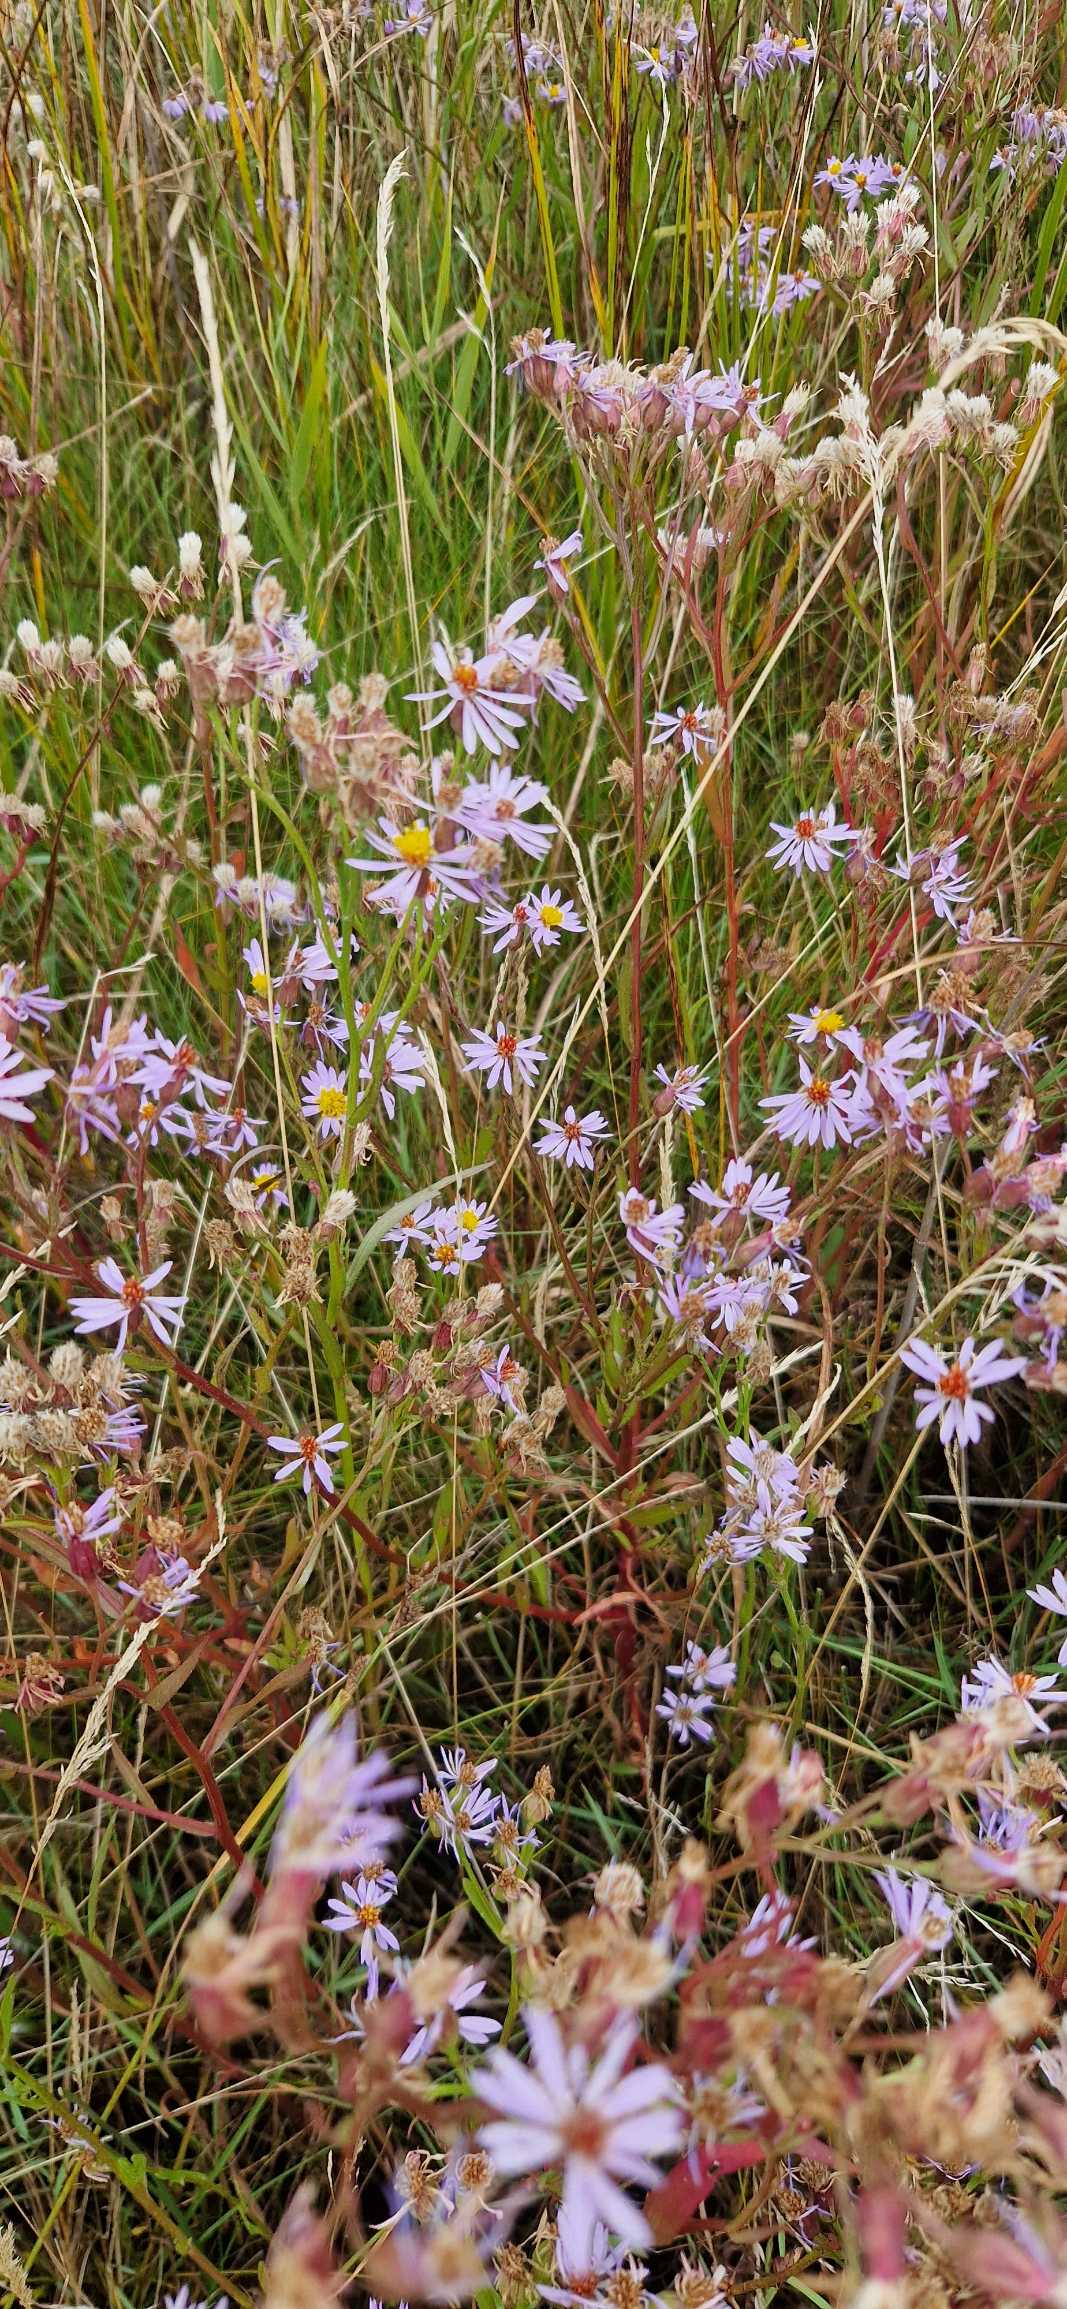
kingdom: Plantae
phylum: Tracheophyta
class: Magnoliopsida
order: Asterales
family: Asteraceae
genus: Tripolium
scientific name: Tripolium pannonicum
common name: Strandasters
